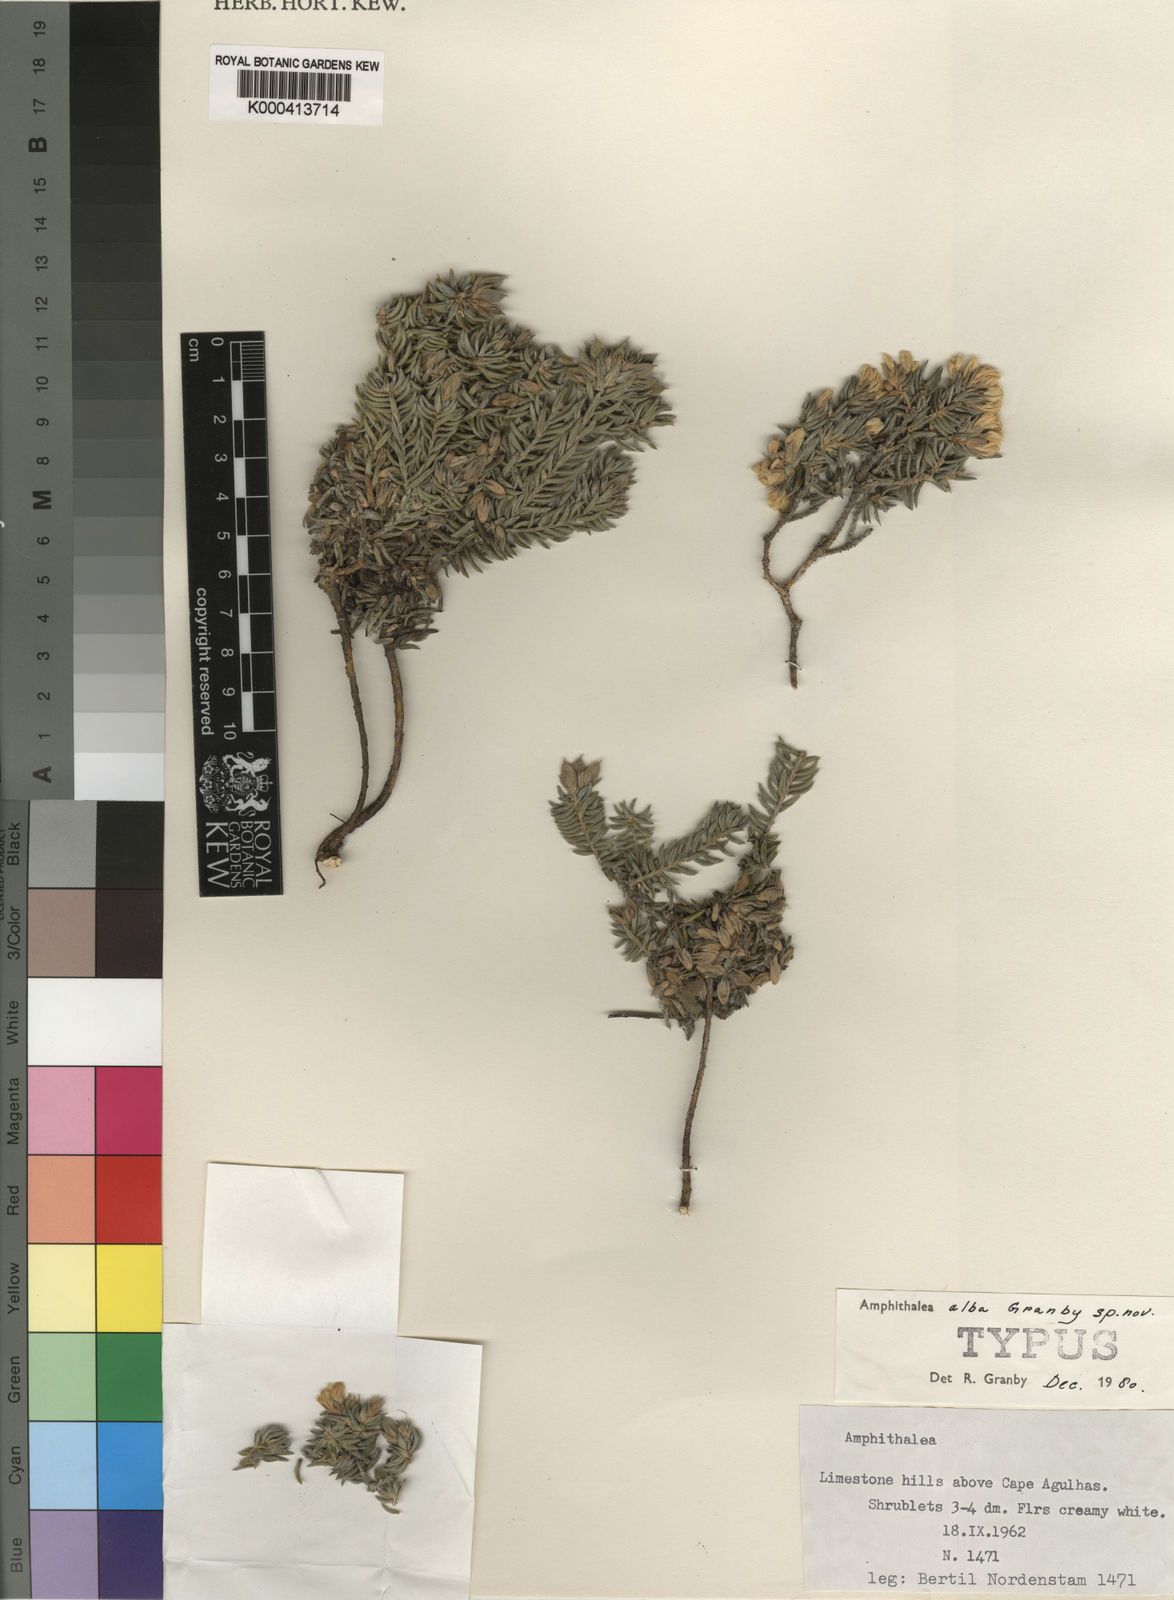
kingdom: Plantae
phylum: Tracheophyta
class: Magnoliopsida
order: Fabales
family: Fabaceae
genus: Amphithalea
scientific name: Amphithalea alba
